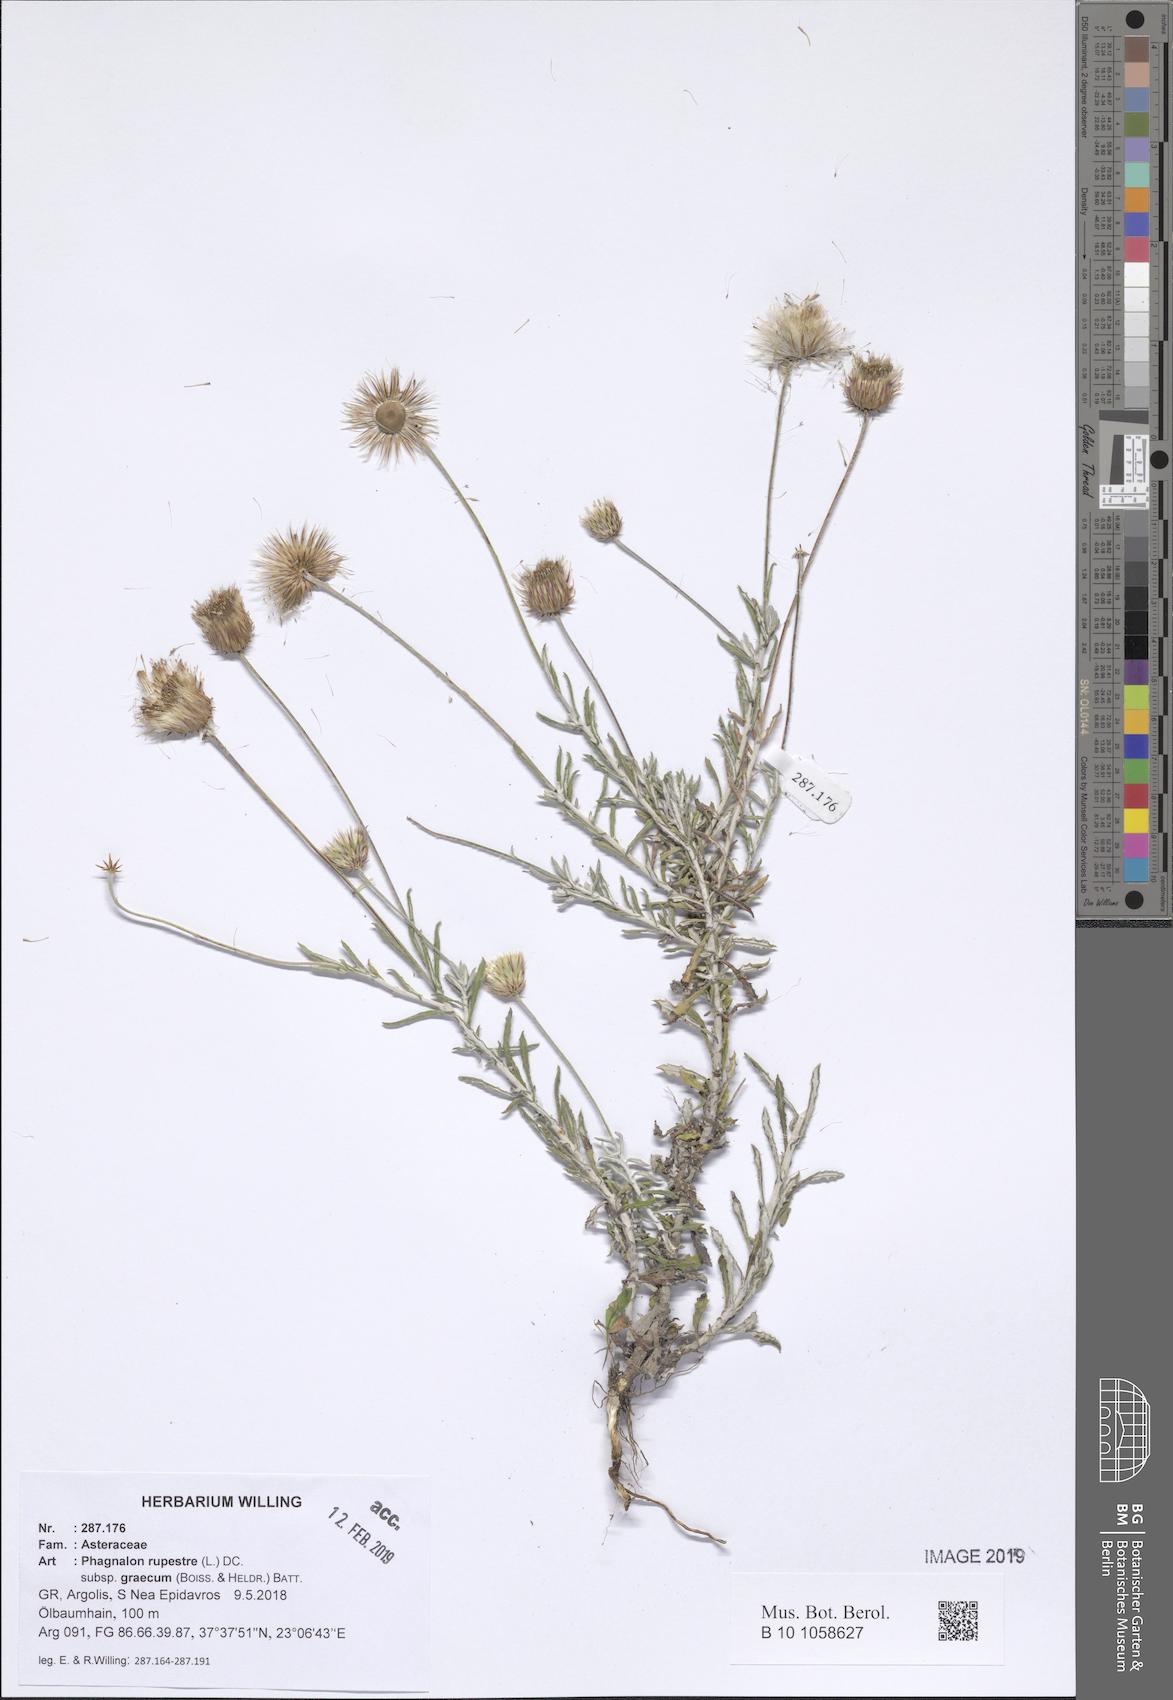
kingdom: Plantae
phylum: Tracheophyta
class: Magnoliopsida
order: Asterales
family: Asteraceae
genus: Phagnalon
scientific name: Phagnalon graecum
